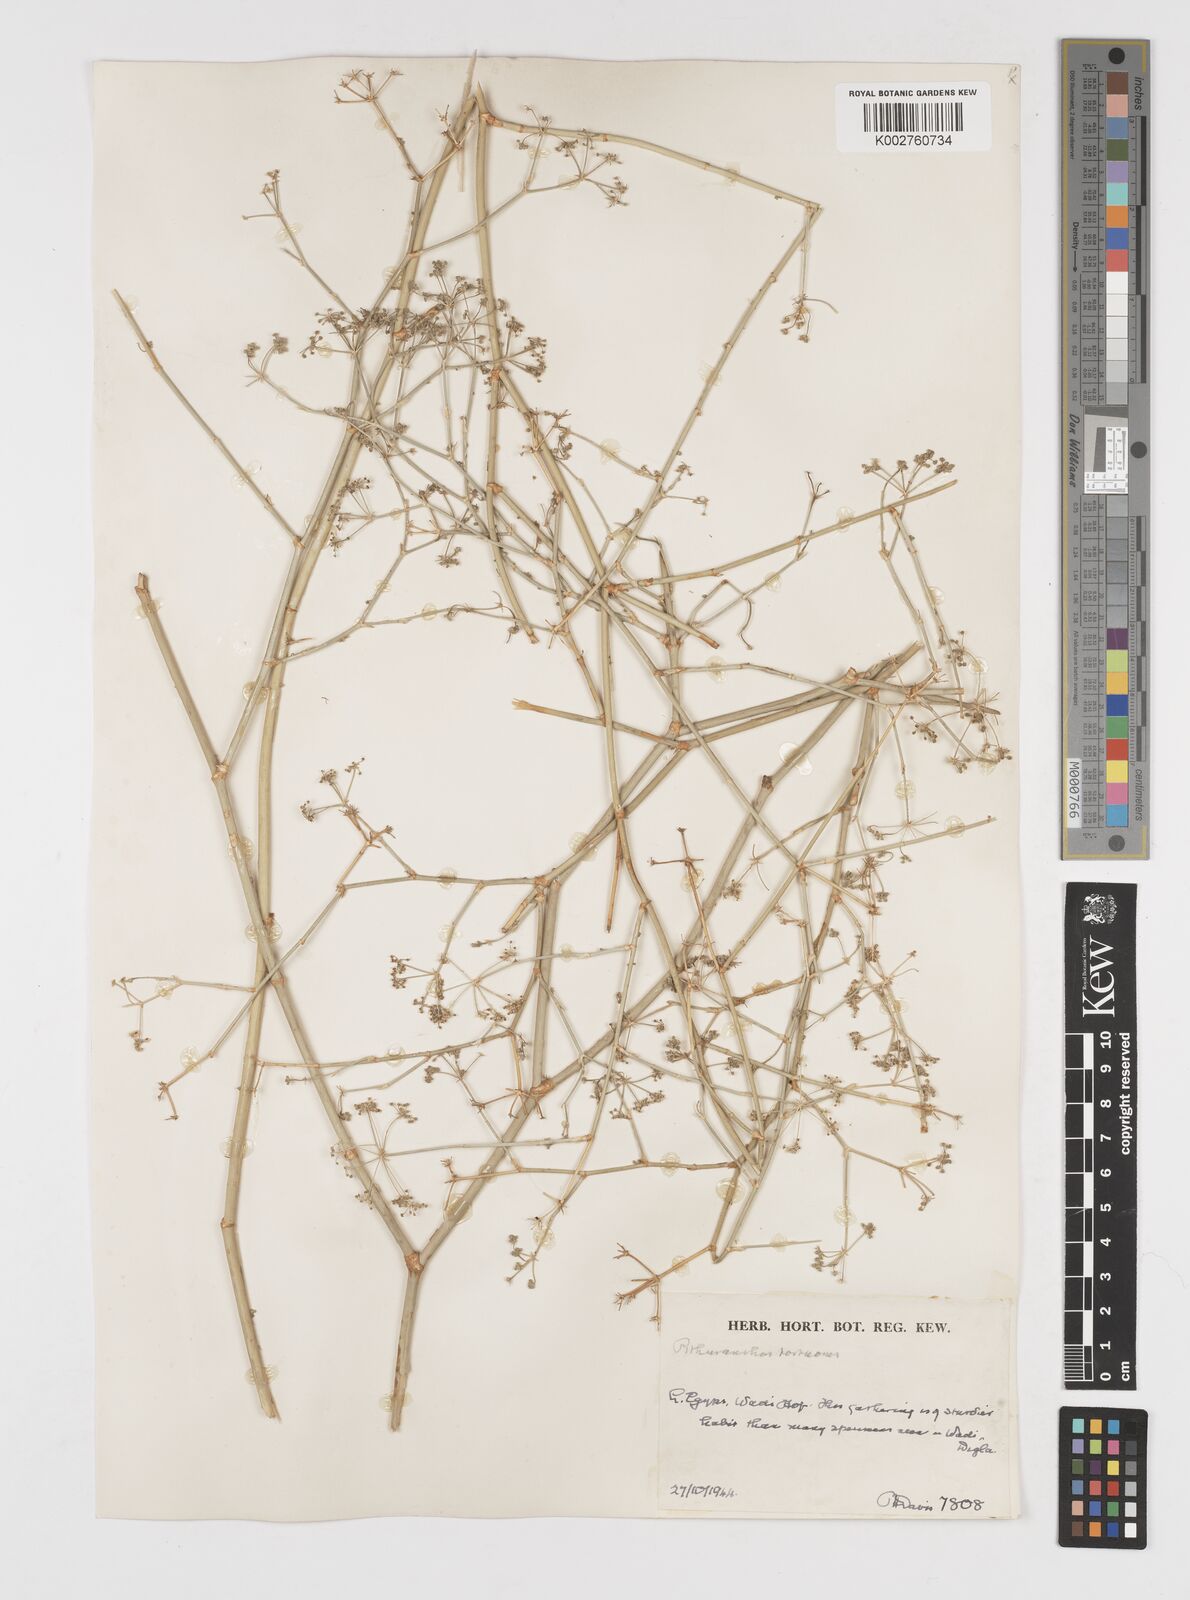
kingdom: Plantae
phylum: Tracheophyta
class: Magnoliopsida
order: Apiales
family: Apiaceae
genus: Deverra
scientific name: Deverra tortuosa
